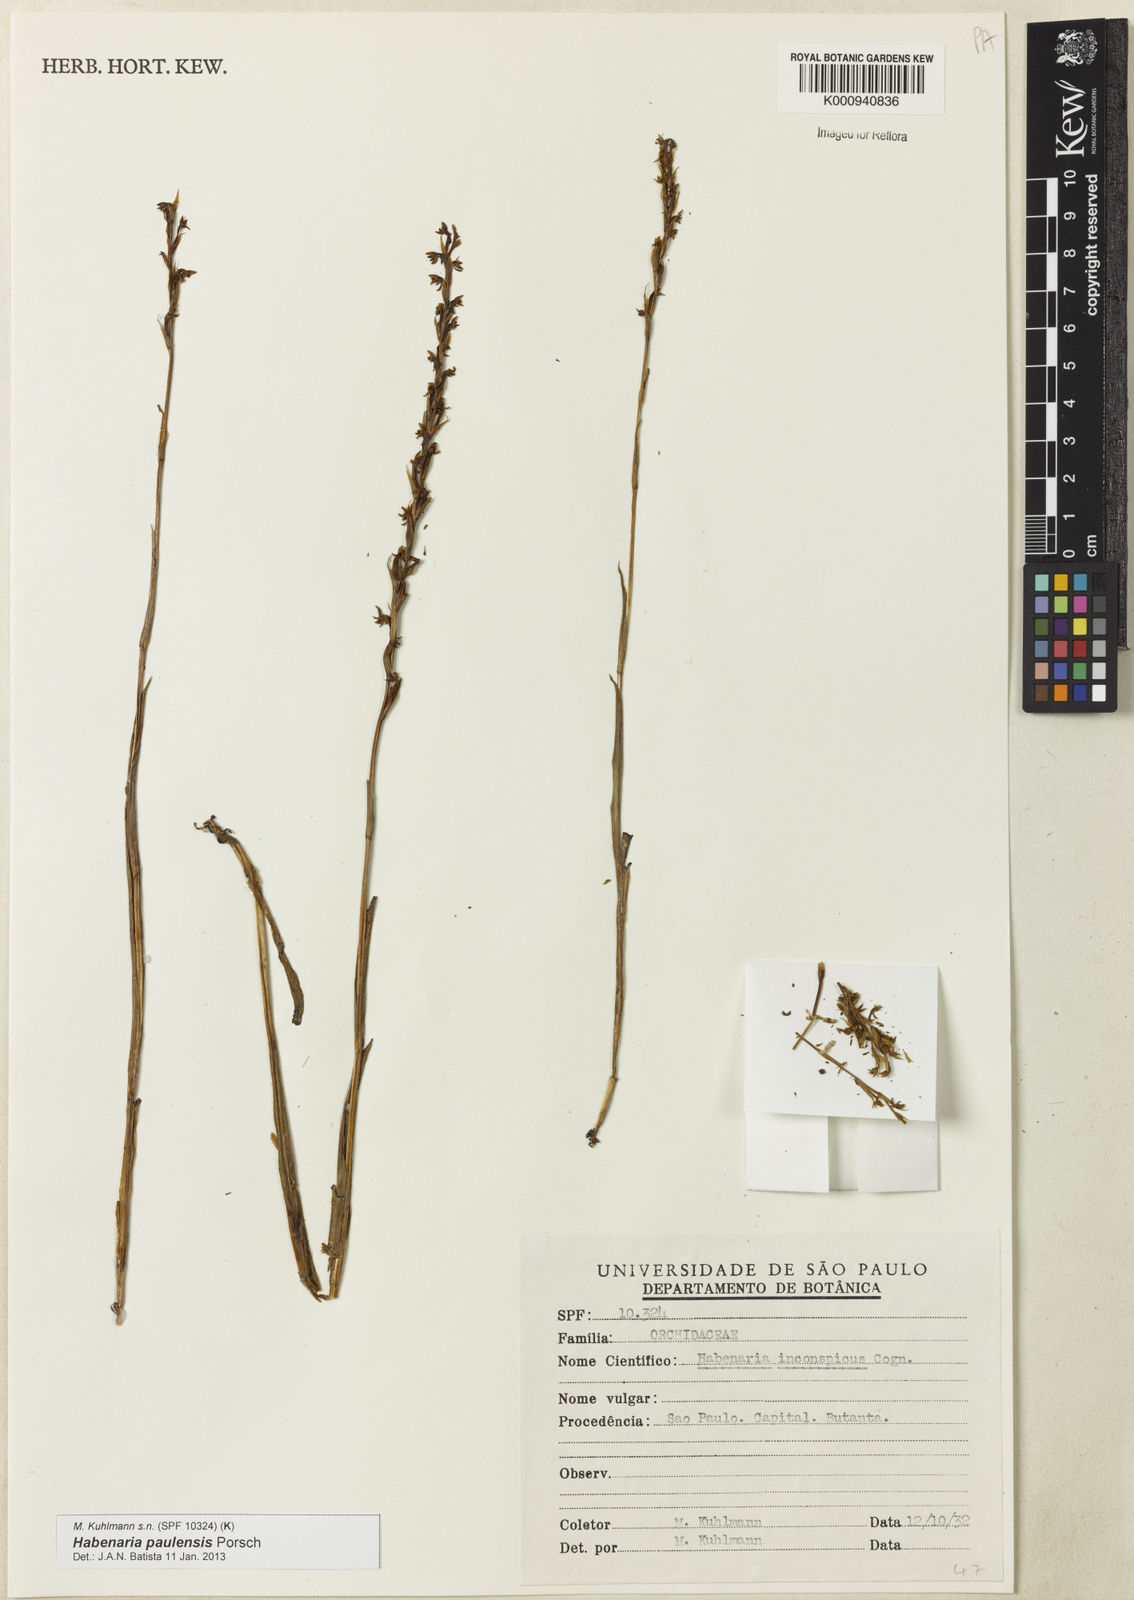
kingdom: Plantae
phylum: Tracheophyta
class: Liliopsida
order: Asparagales
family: Orchidaceae
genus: Habenaria
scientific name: Habenaria paulensis
